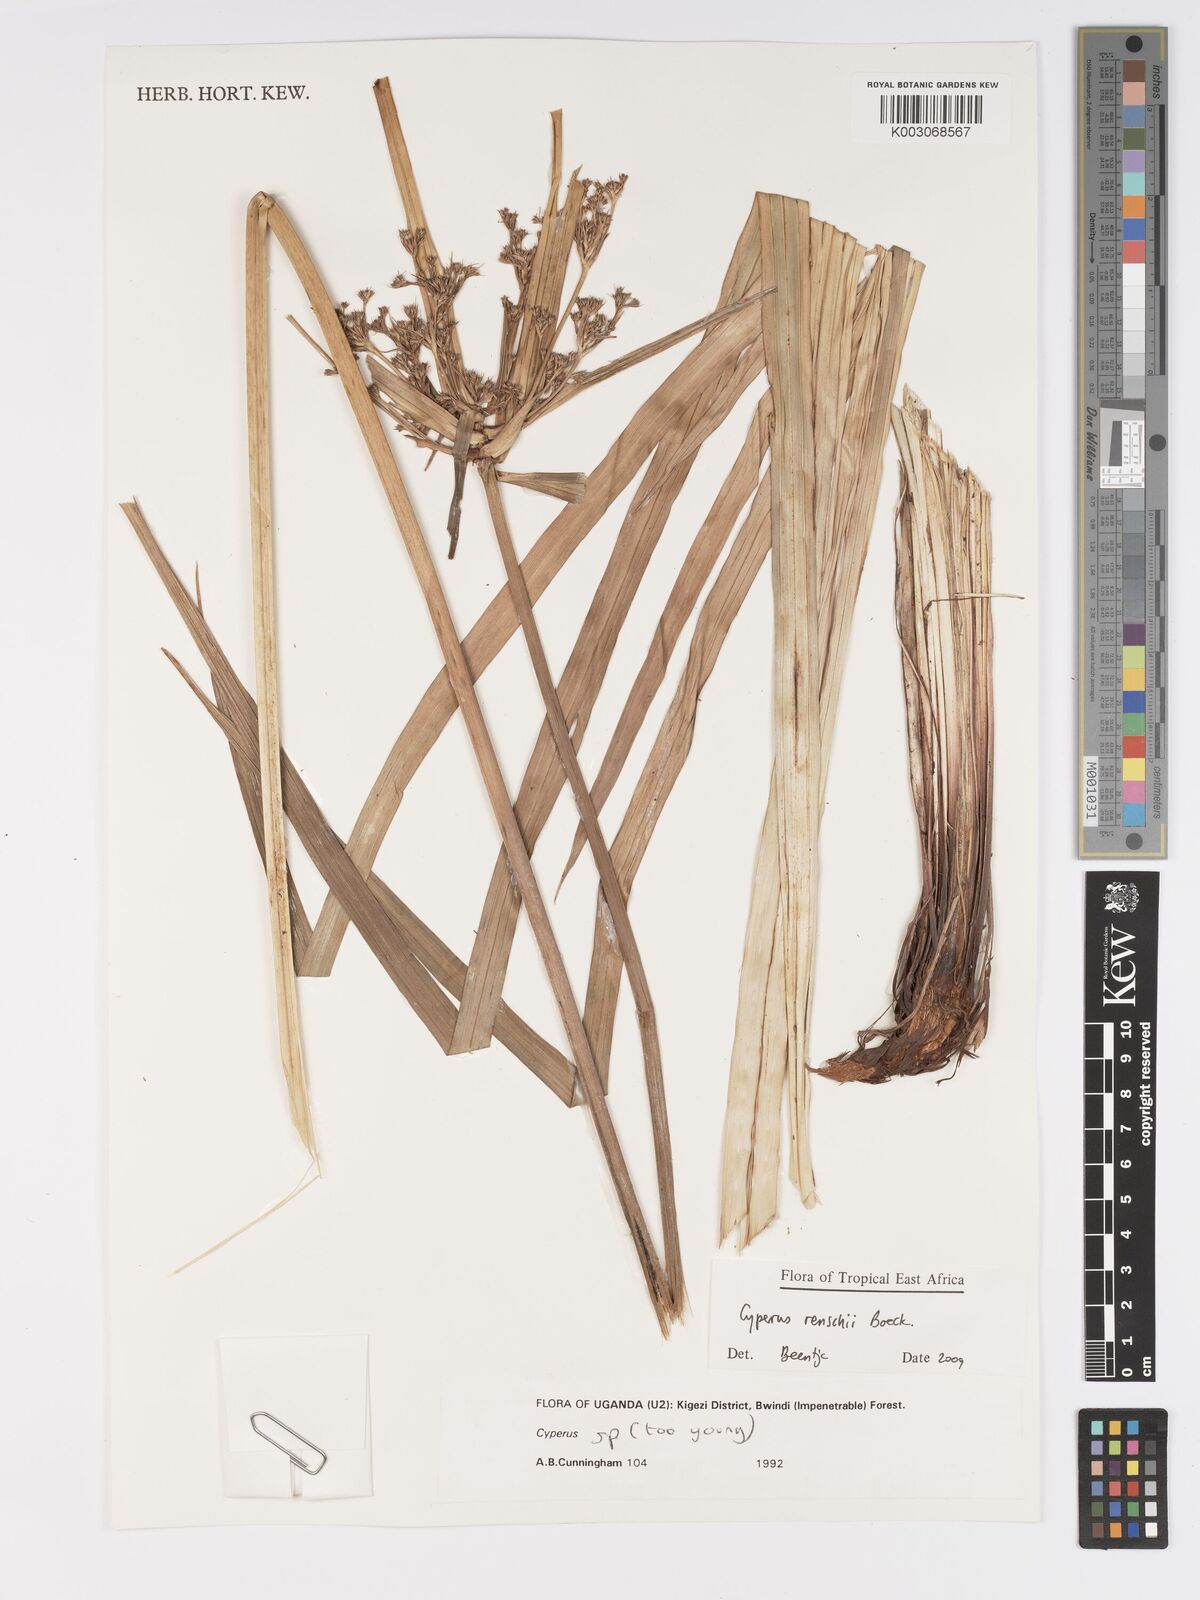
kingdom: Plantae
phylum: Tracheophyta
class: Liliopsida
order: Poales
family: Cyperaceae
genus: Cyperus
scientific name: Cyperus renschii
